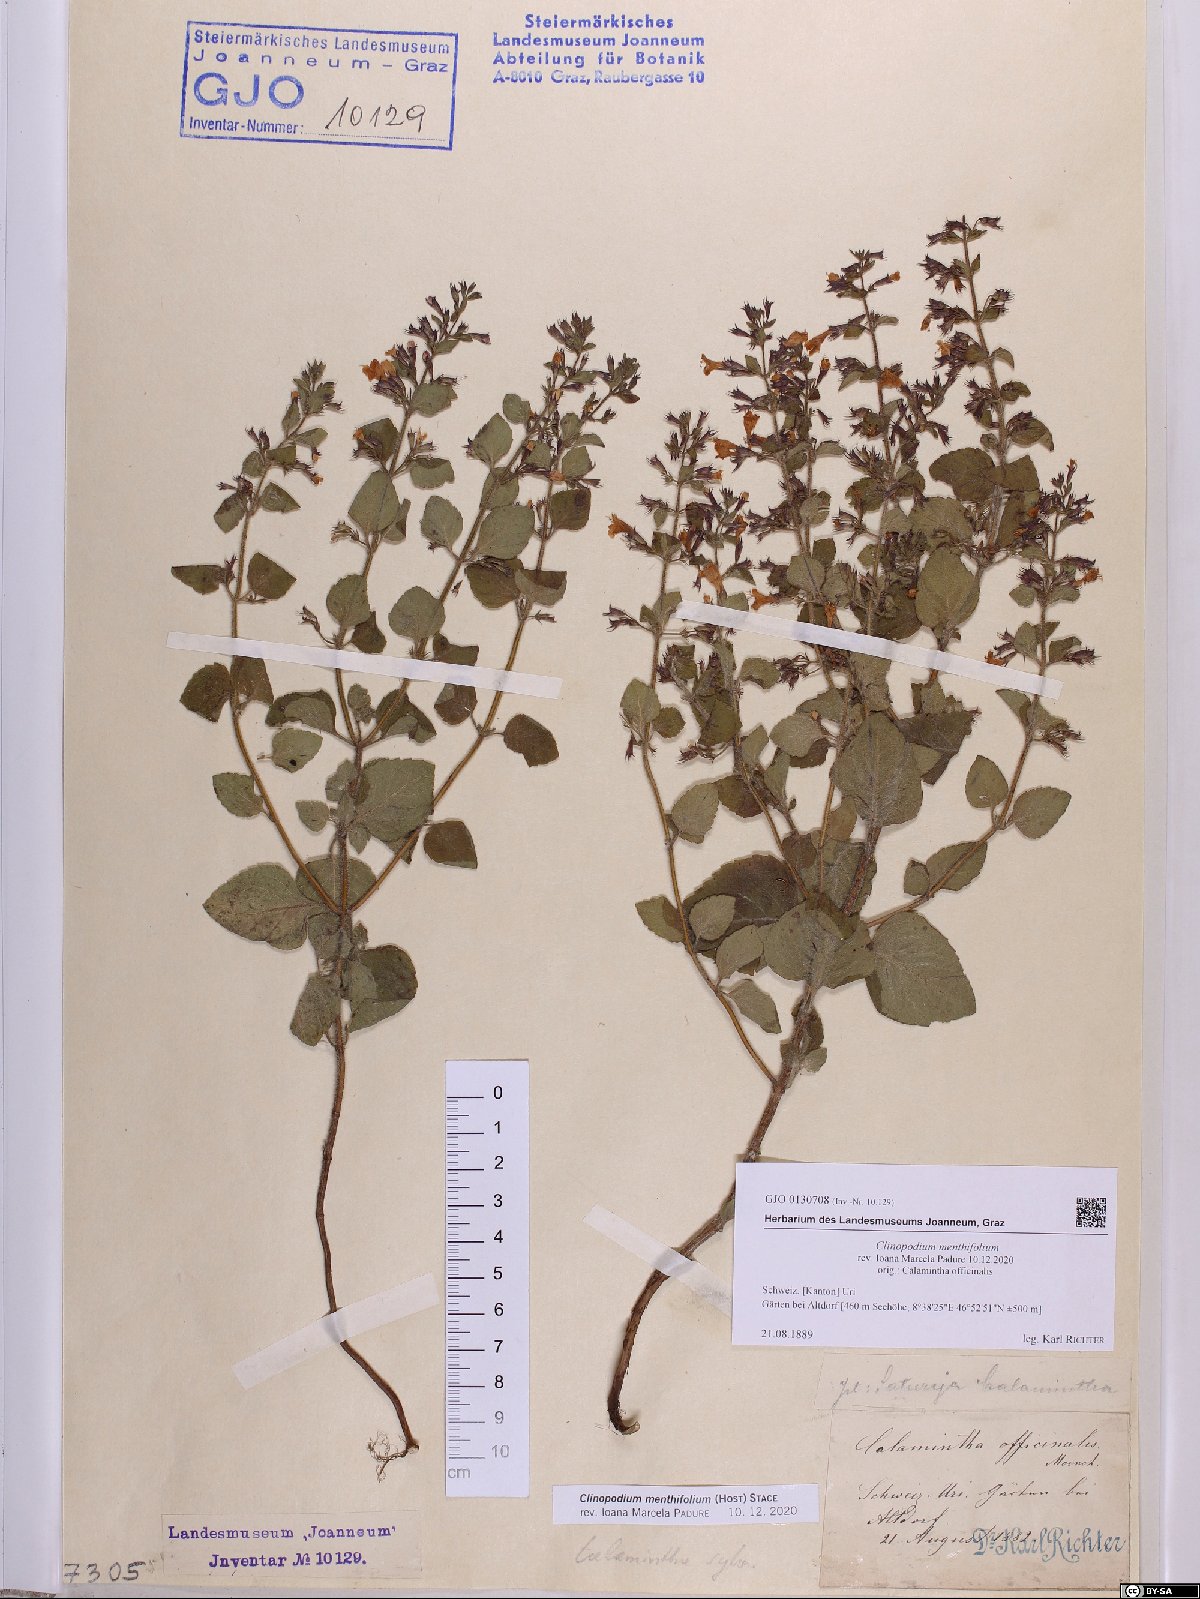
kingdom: Plantae
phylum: Tracheophyta
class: Magnoliopsida
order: Lamiales
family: Lamiaceae
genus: Clinopodium
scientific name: Clinopodium menthifolium
